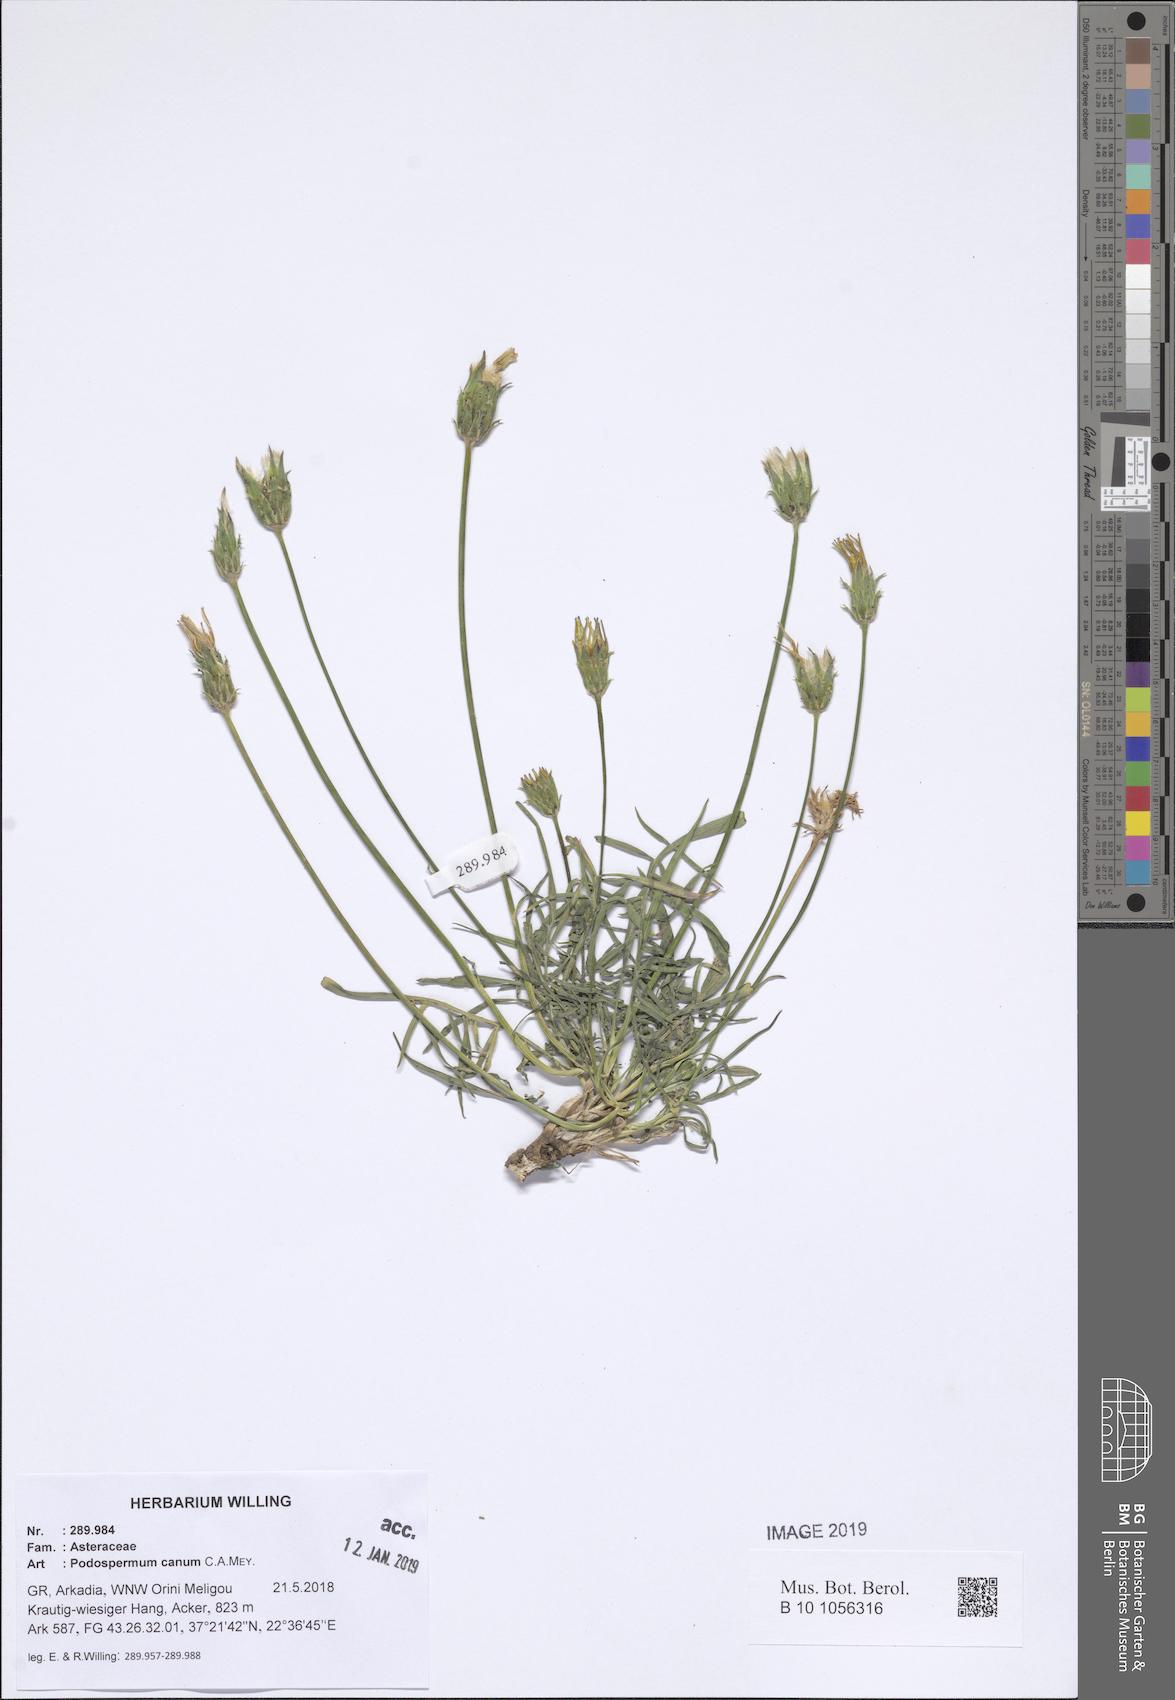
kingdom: Plantae
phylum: Tracheophyta
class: Magnoliopsida
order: Asterales
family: Asteraceae
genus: Scorzonera
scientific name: Scorzonera cana
